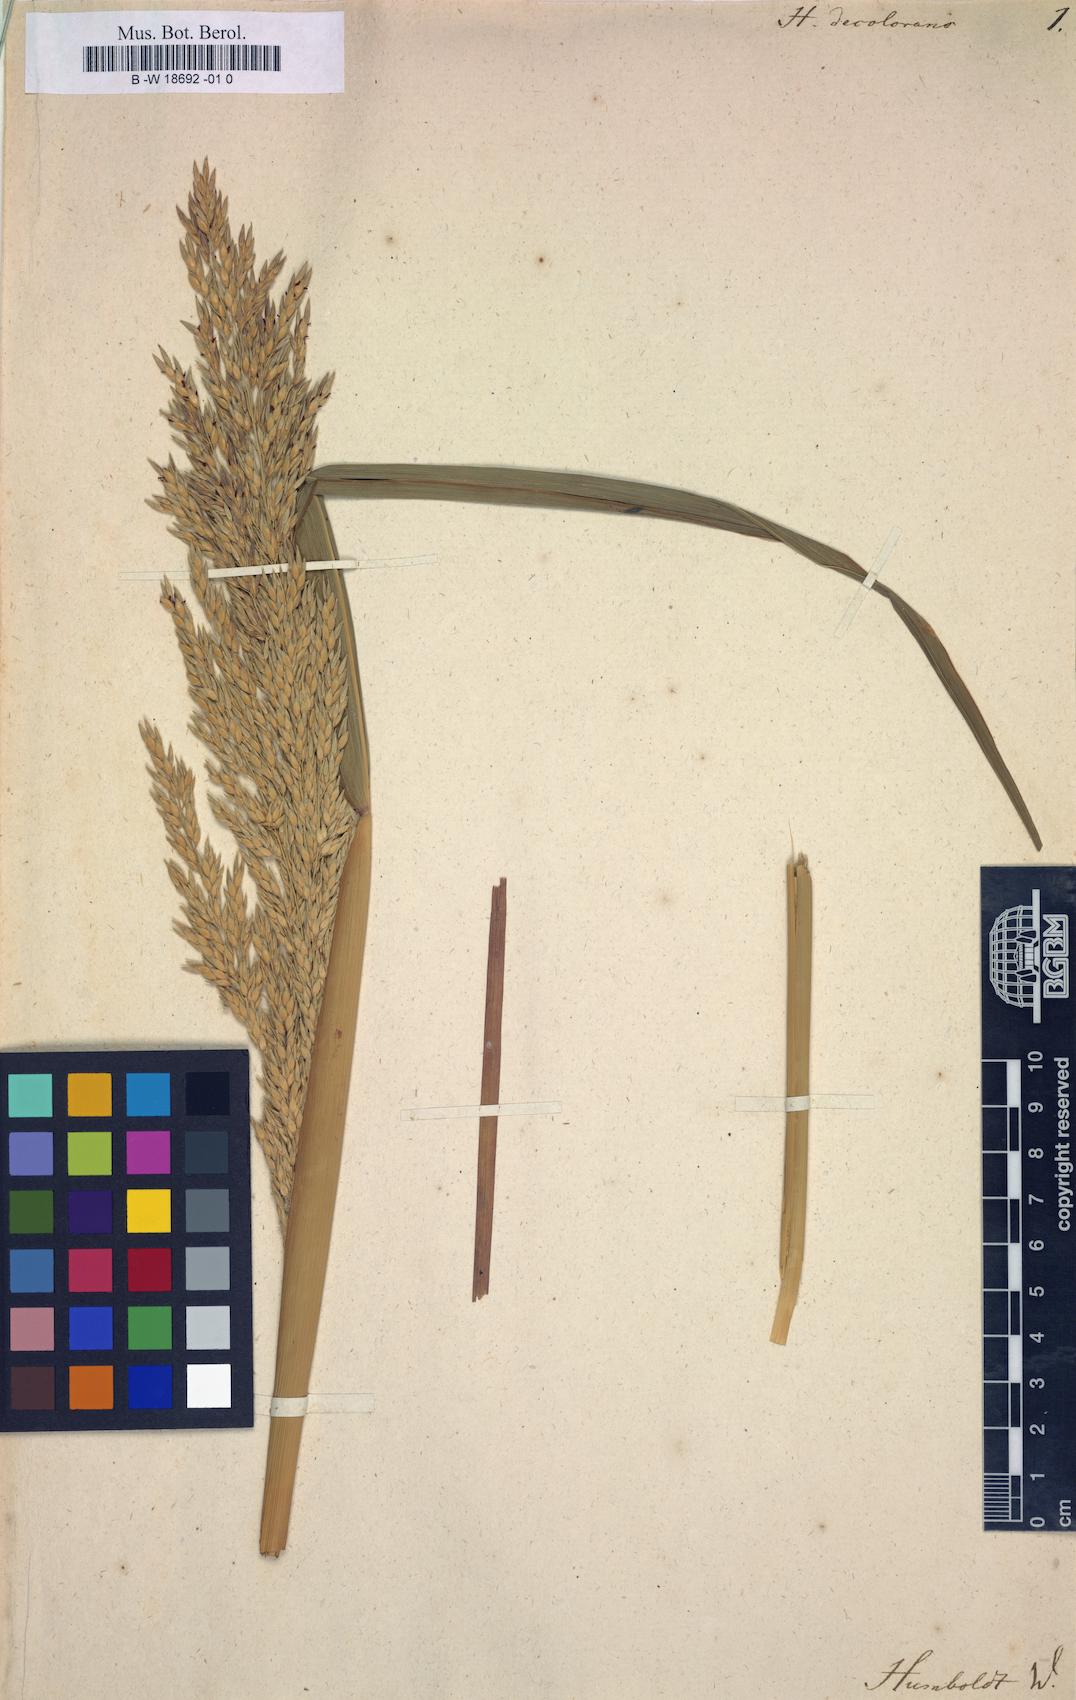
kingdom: Plantae
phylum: Tracheophyta
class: Liliopsida
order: Poales
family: Poaceae
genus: Sorghum
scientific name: Sorghum halepense
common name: Johnson-grass
